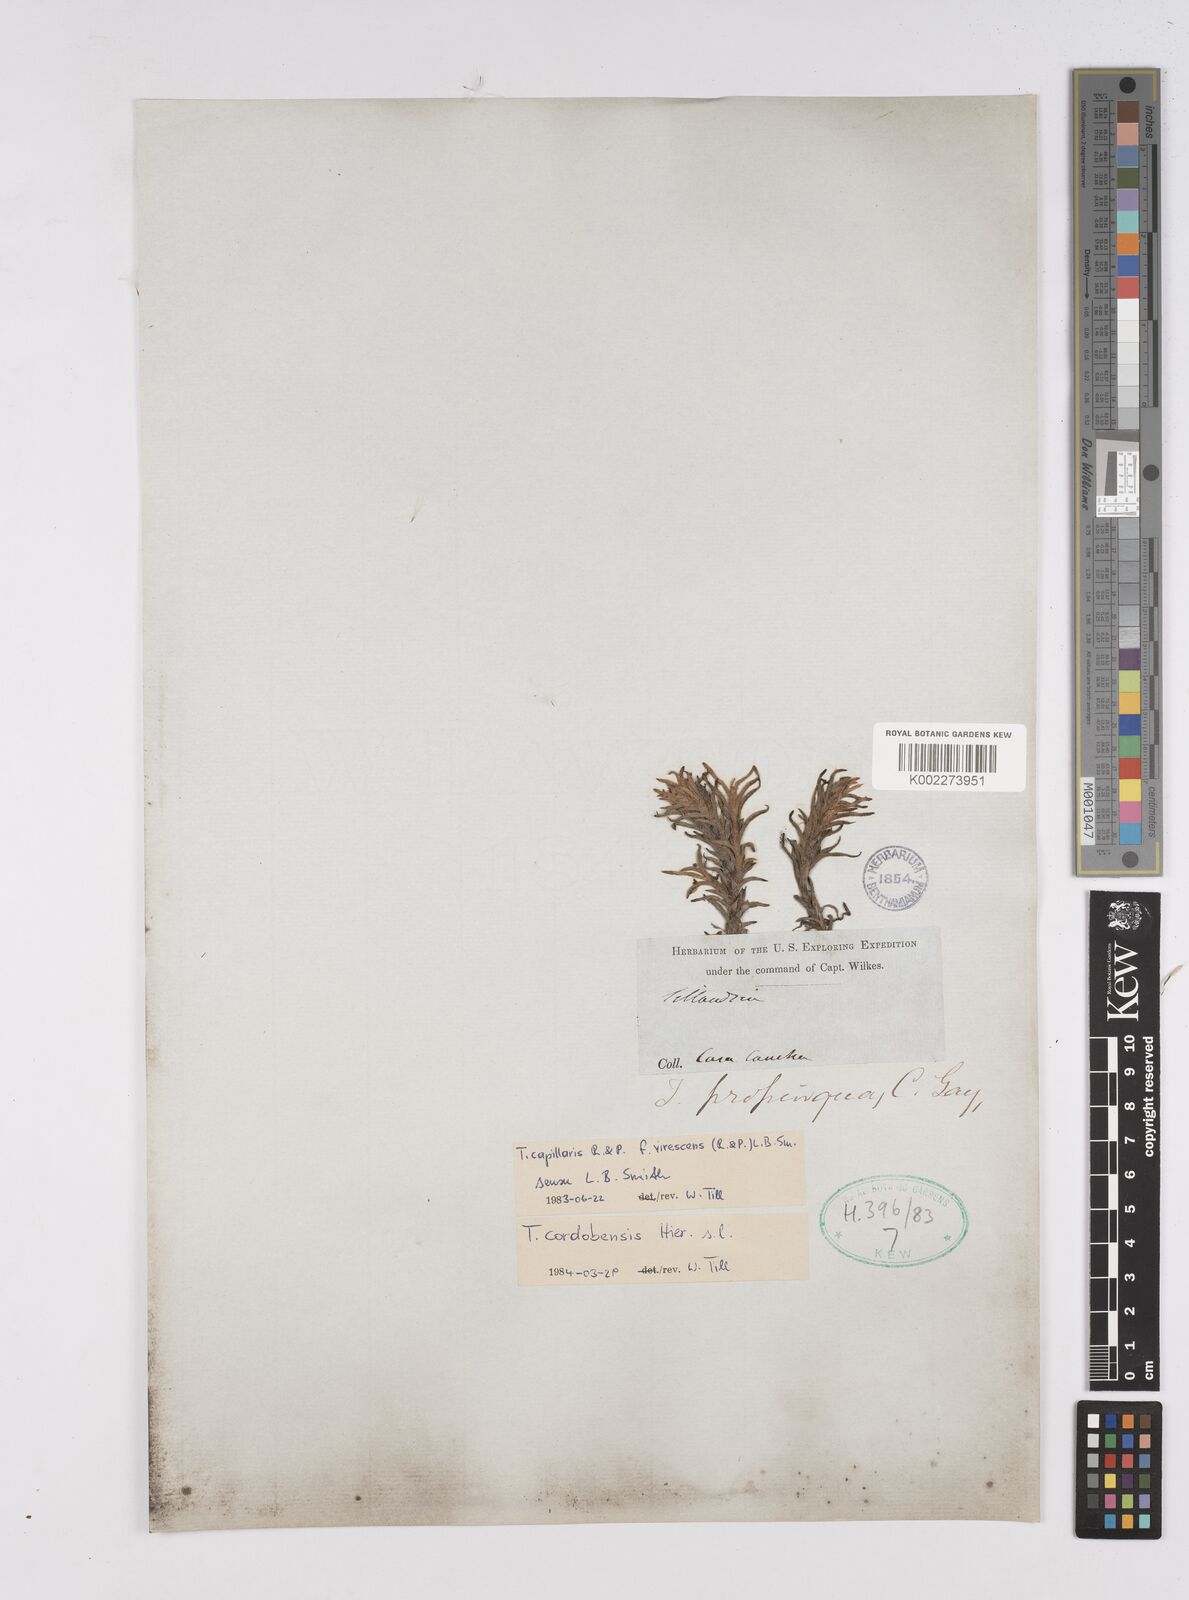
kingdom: Plantae
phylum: Tracheophyta
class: Liliopsida
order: Poales
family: Bromeliaceae
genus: Tillandsia
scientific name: Tillandsia virescens
